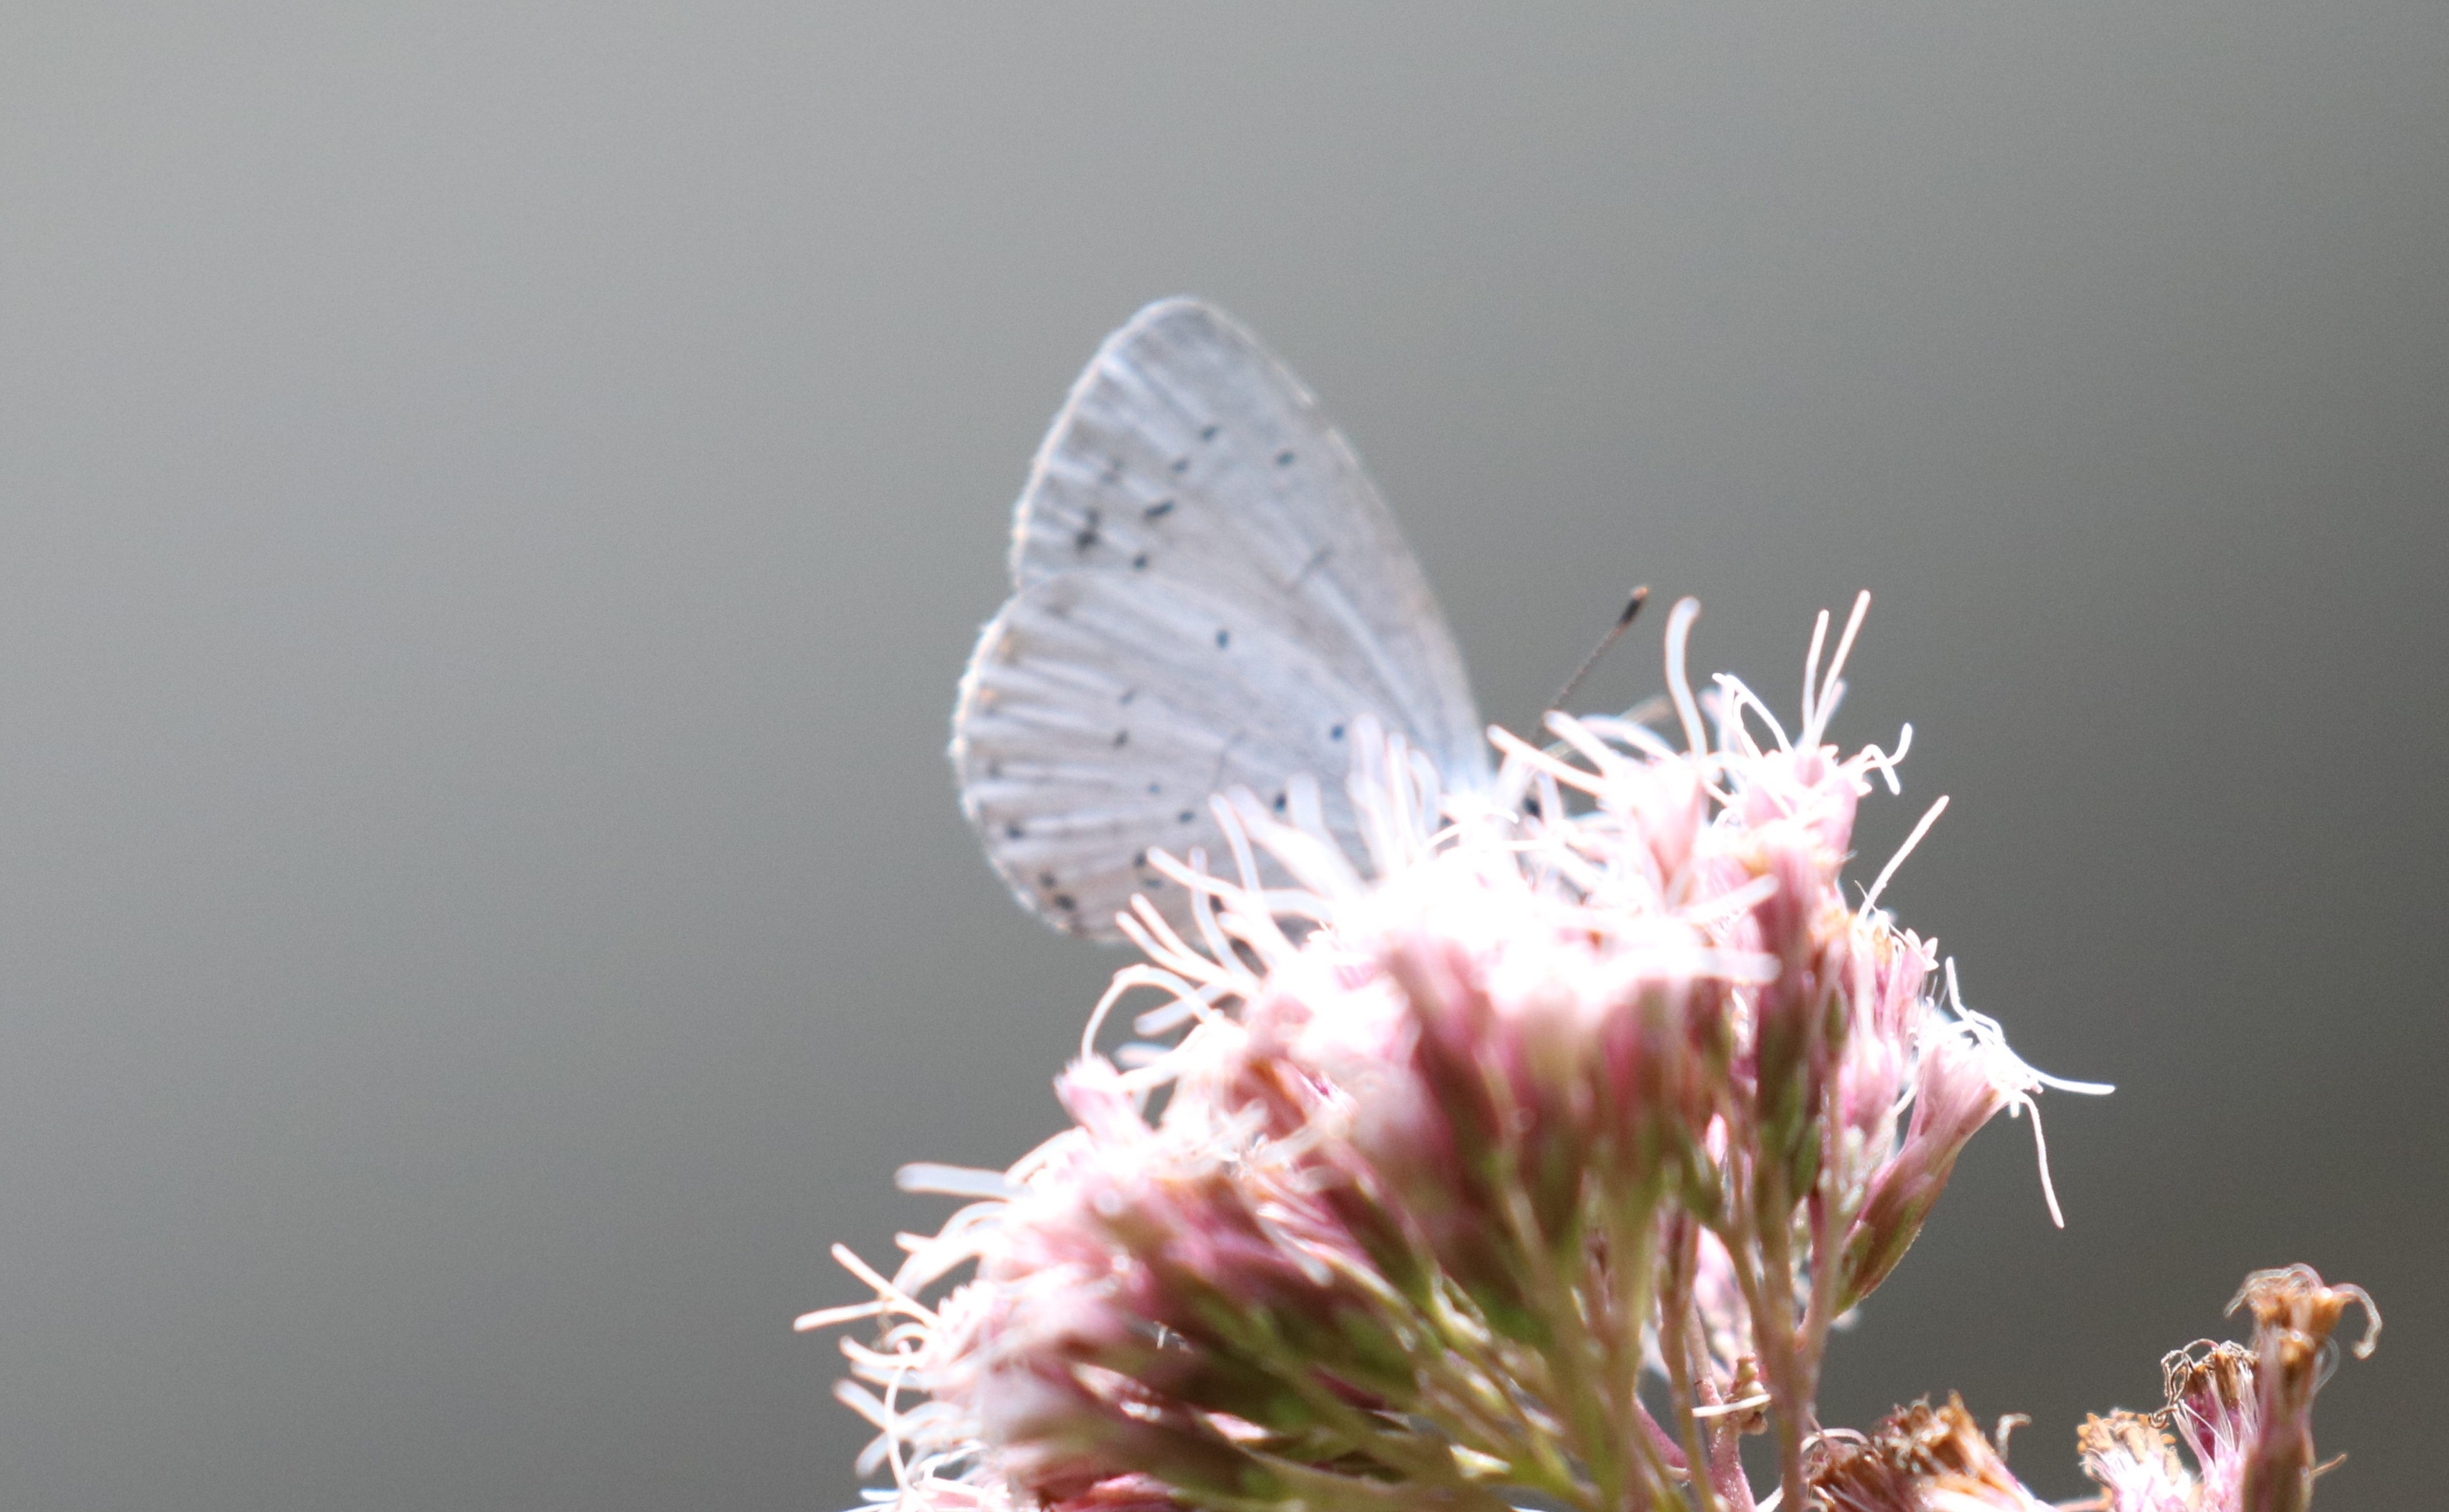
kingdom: Animalia
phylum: Arthropoda
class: Insecta
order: Lepidoptera
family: Lycaenidae
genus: Celastrina
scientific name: Celastrina argiolus
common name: Skovblåfugl
